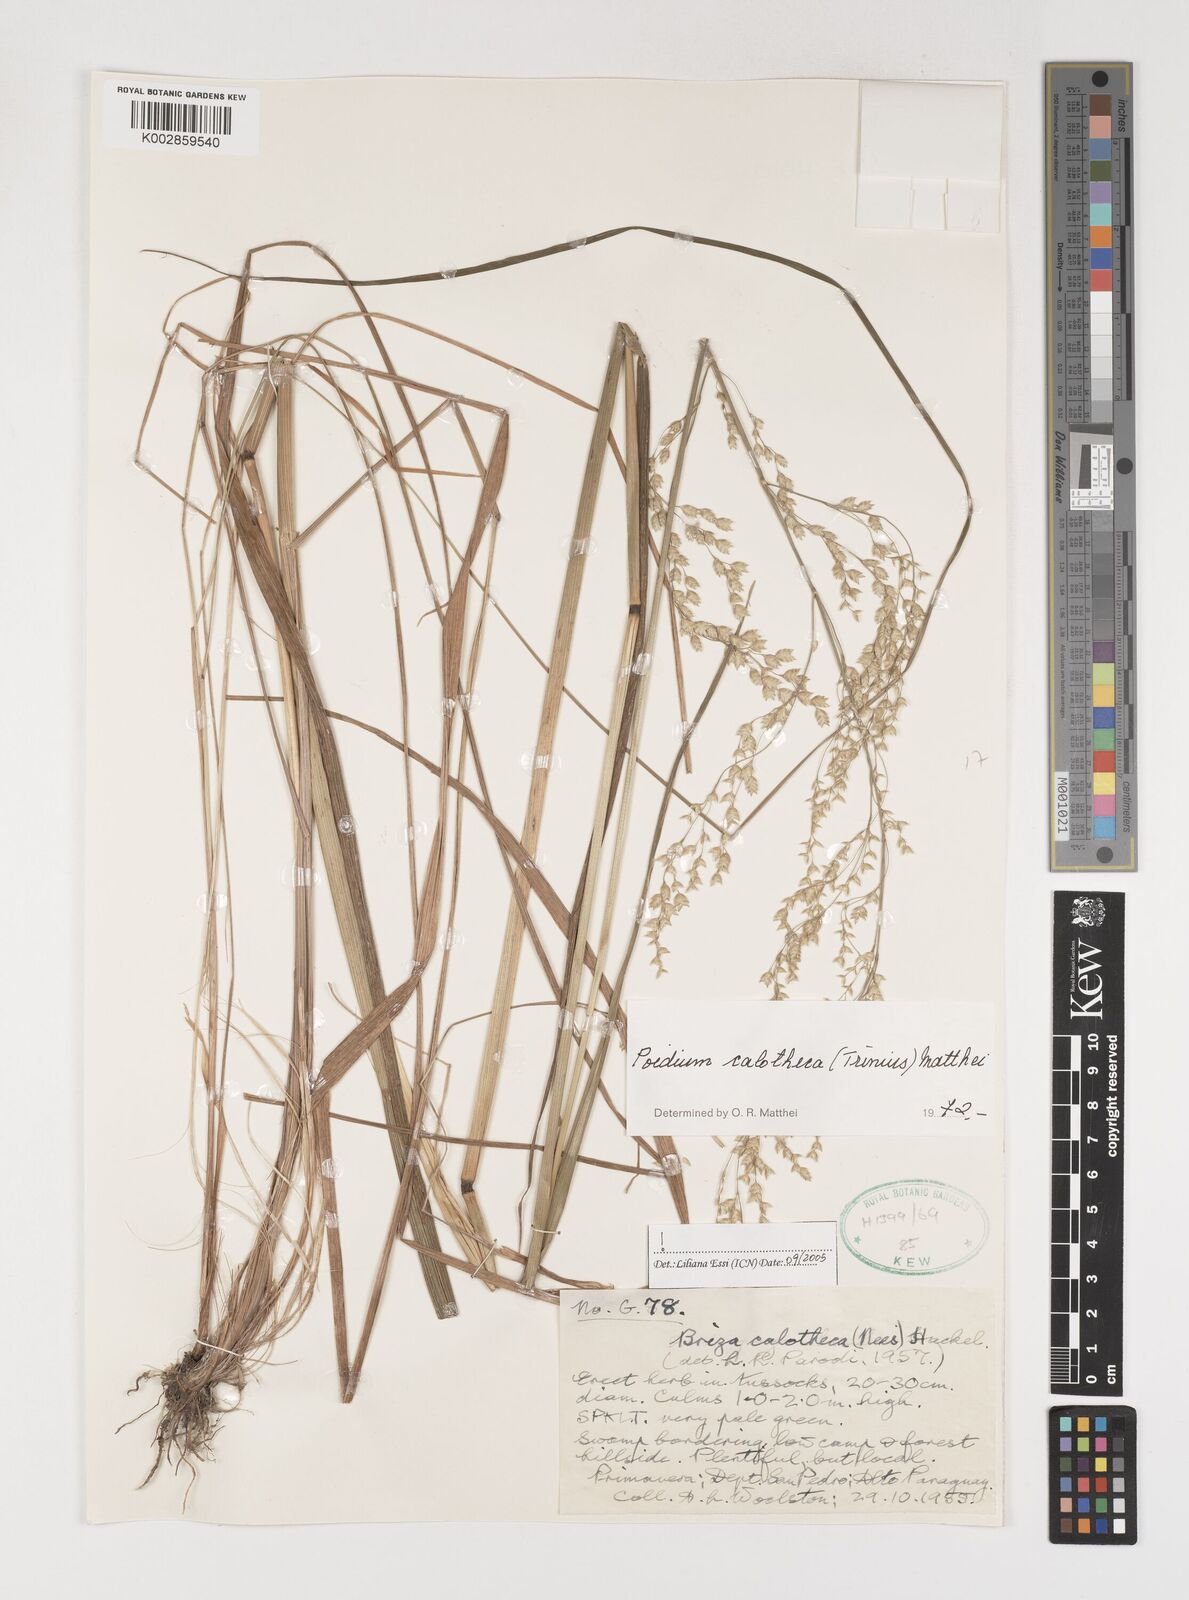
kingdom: Plantae
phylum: Tracheophyta
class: Liliopsida
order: Poales
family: Poaceae
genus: Poidium
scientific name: Poidium calotheca
